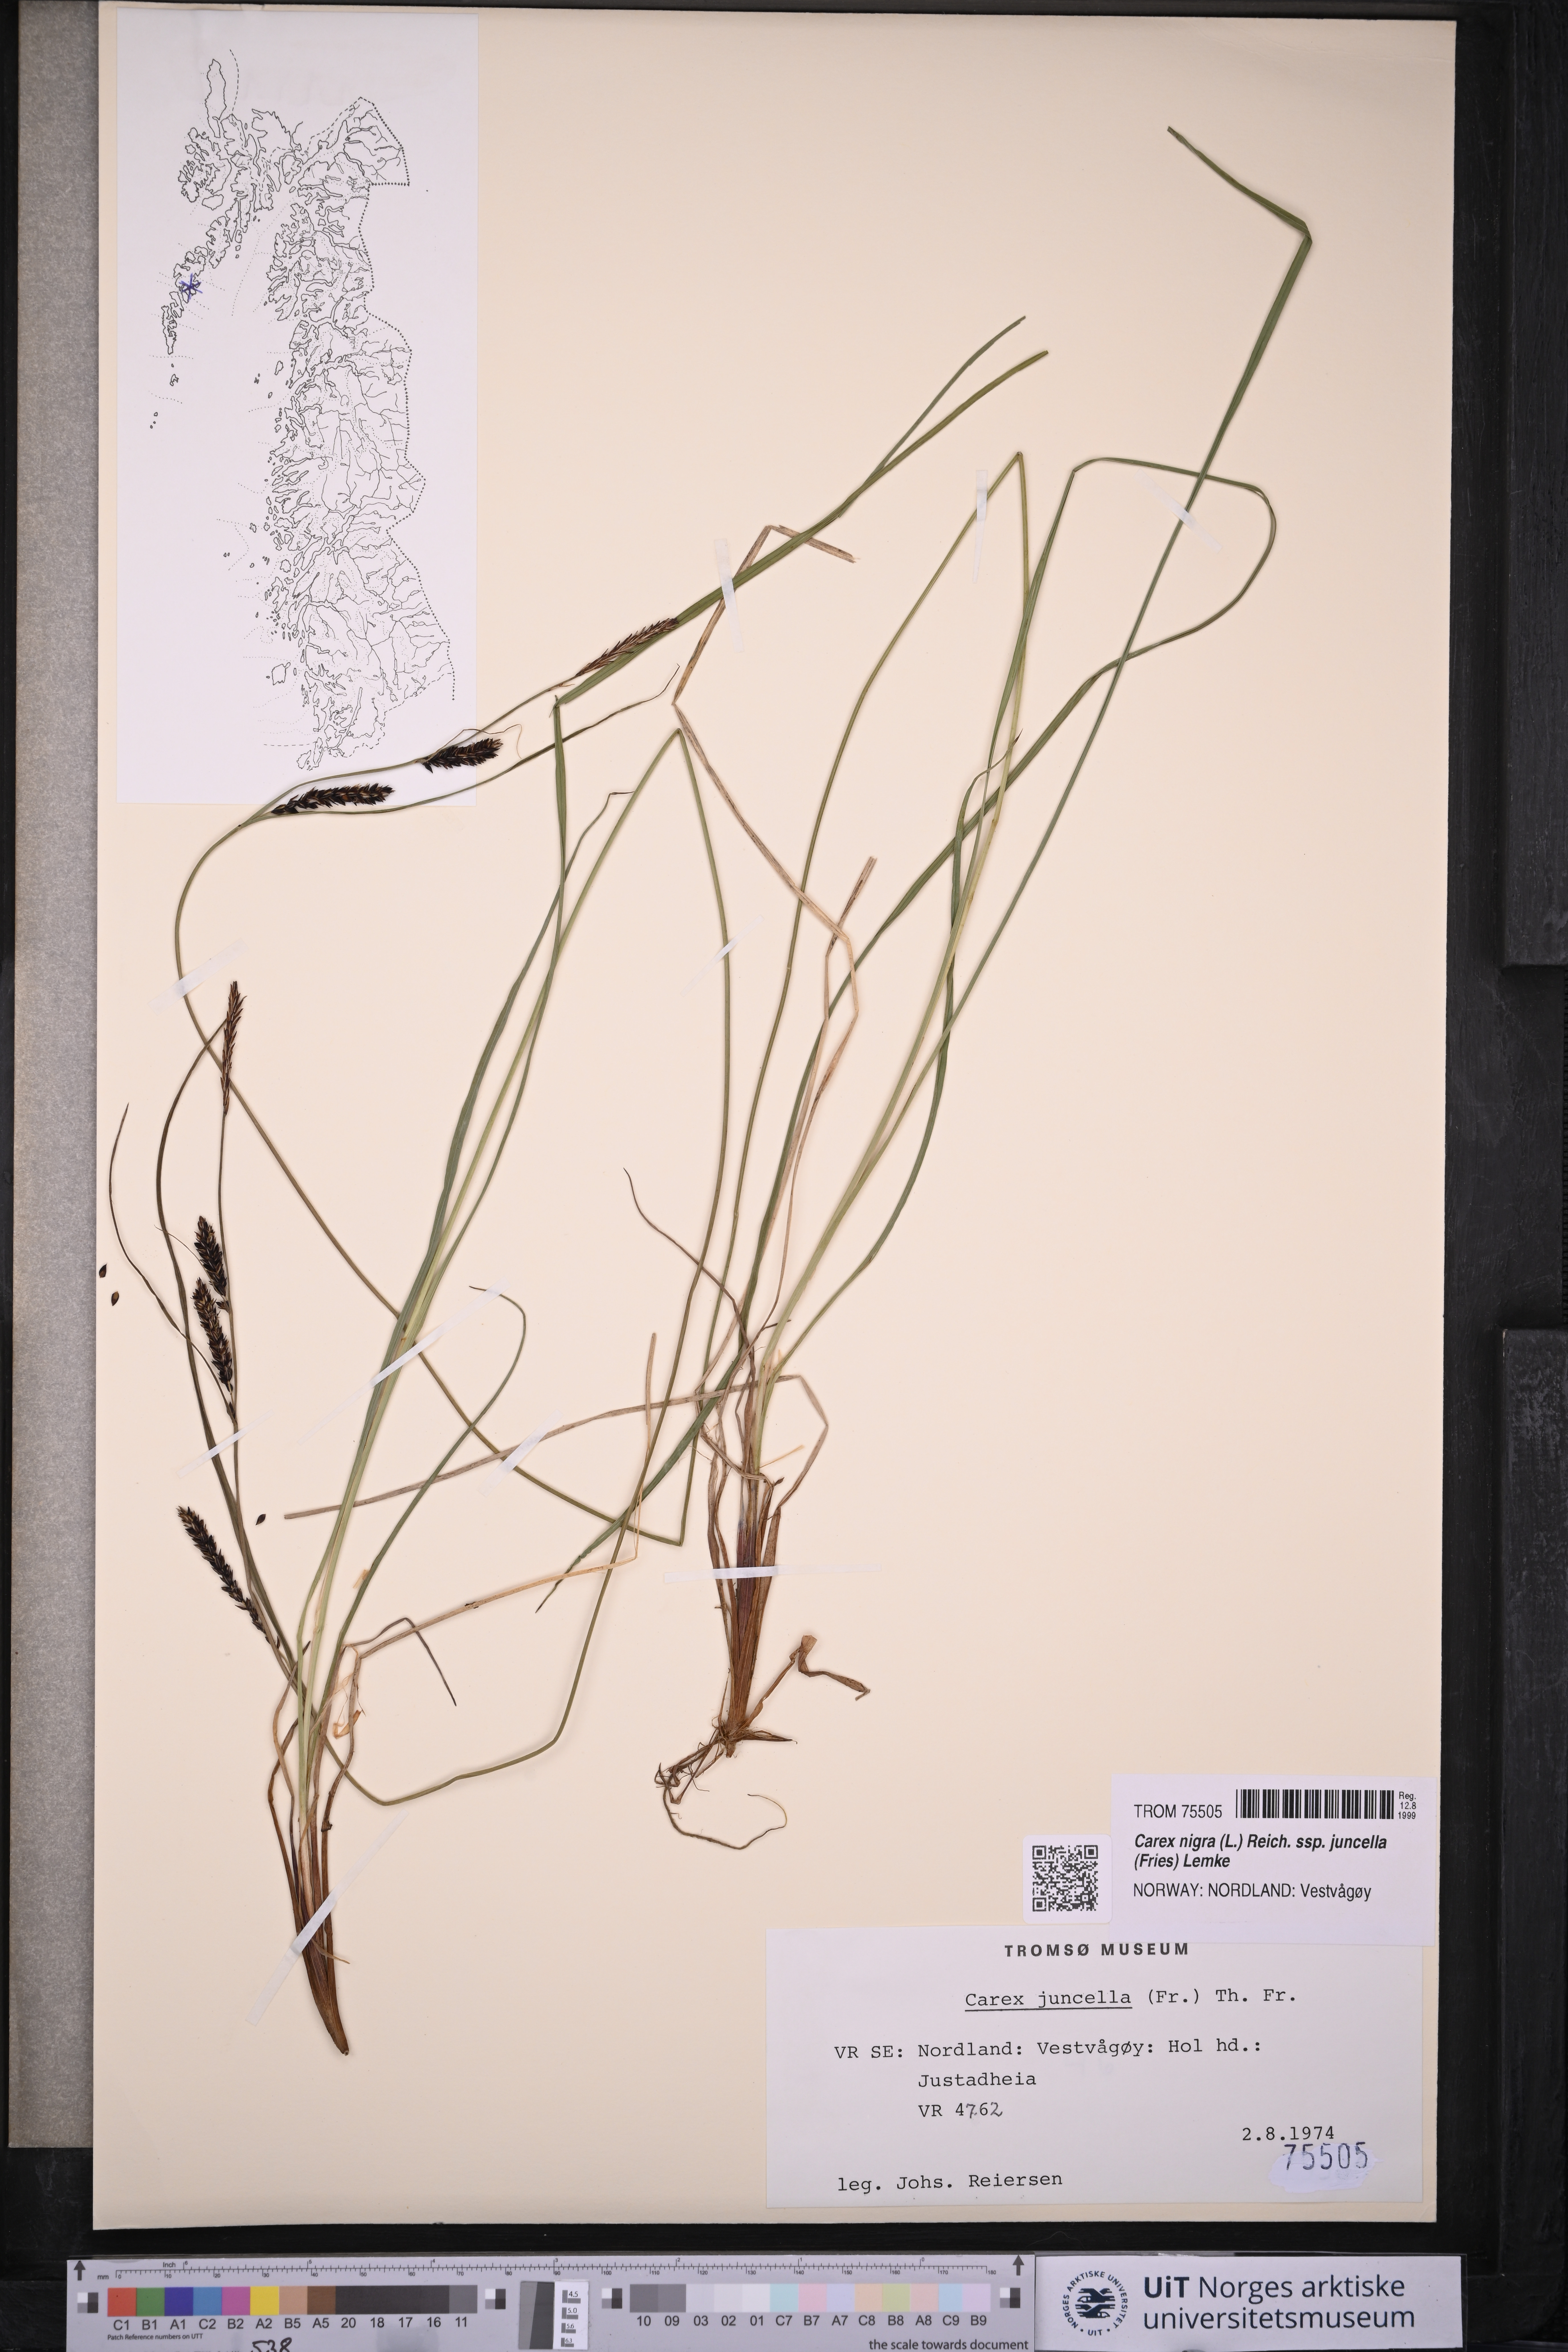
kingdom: Plantae
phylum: Tracheophyta
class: Liliopsida
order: Poales
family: Cyperaceae
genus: Carex
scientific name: Carex nigra
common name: Common sedge
